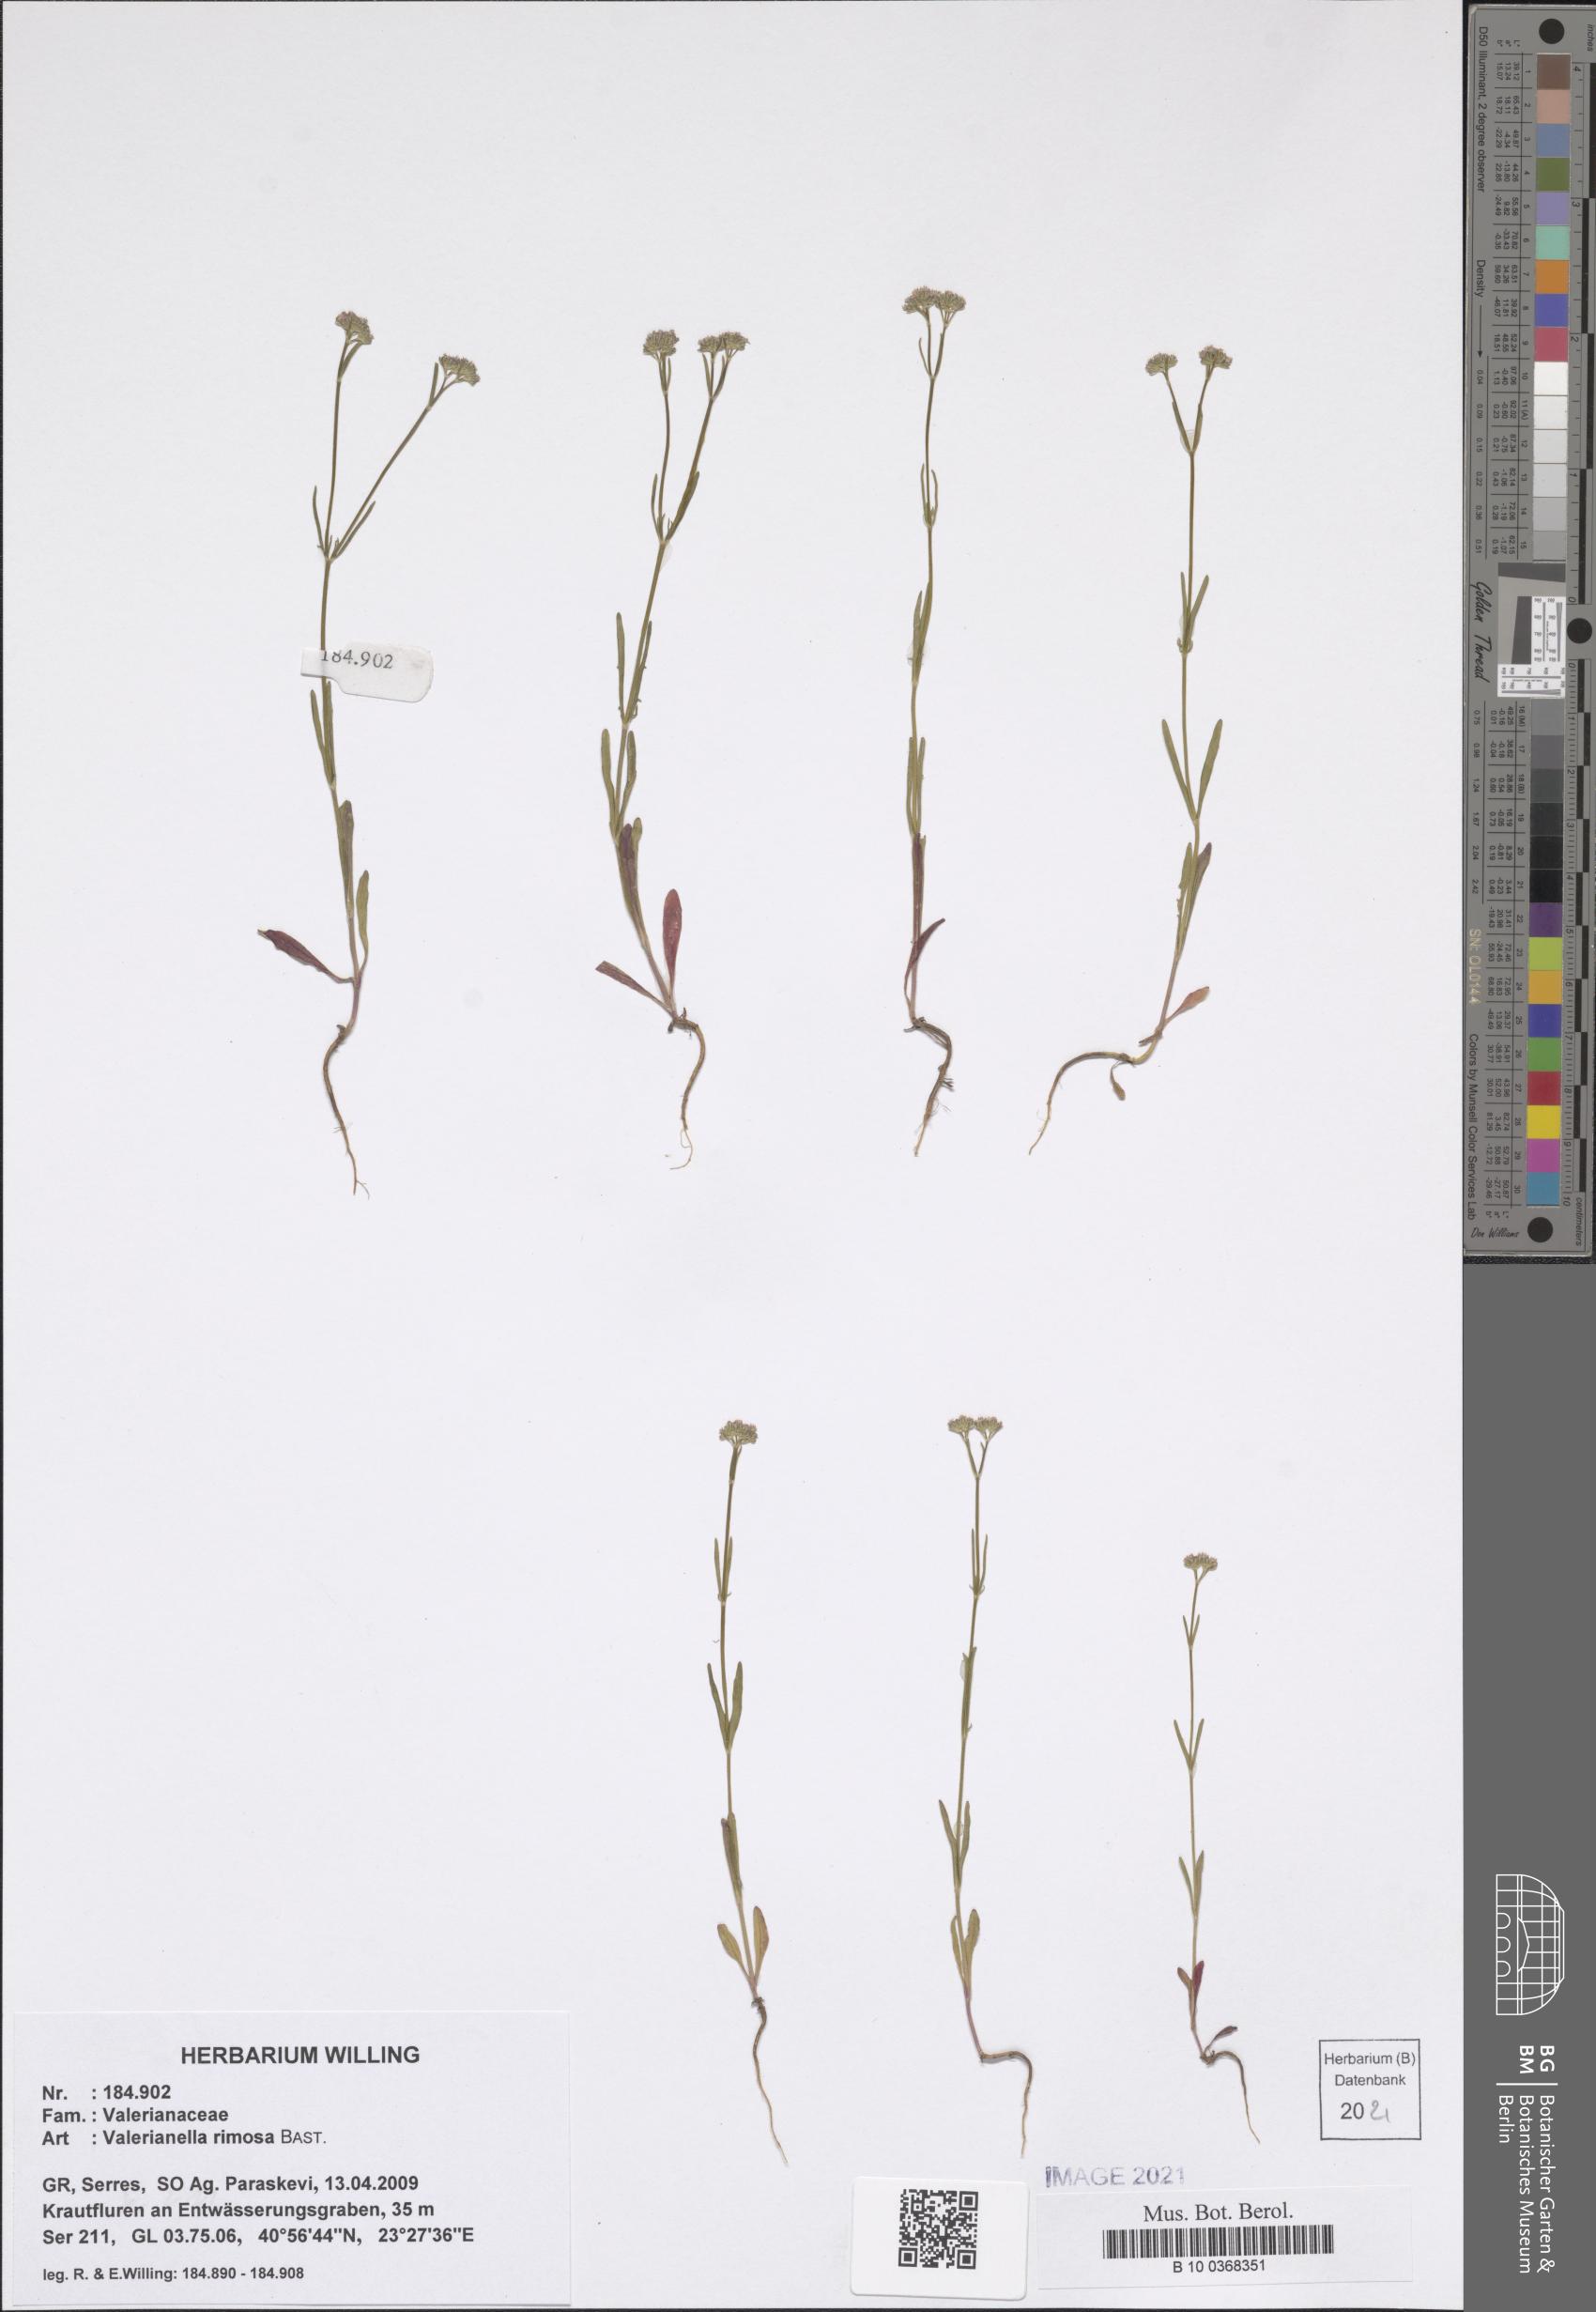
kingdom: Plantae
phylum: Tracheophyta
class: Magnoliopsida
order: Dipsacales
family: Caprifoliaceae
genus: Valerianella
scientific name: Valerianella rimosa
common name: Broad-fruited cornsalad
